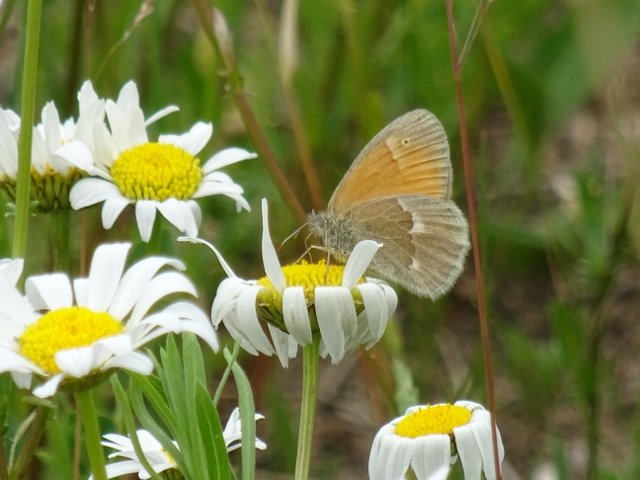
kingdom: Animalia
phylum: Arthropoda
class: Insecta
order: Lepidoptera
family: Nymphalidae
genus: Coenonympha
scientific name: Coenonympha tullia
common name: Large Heath
